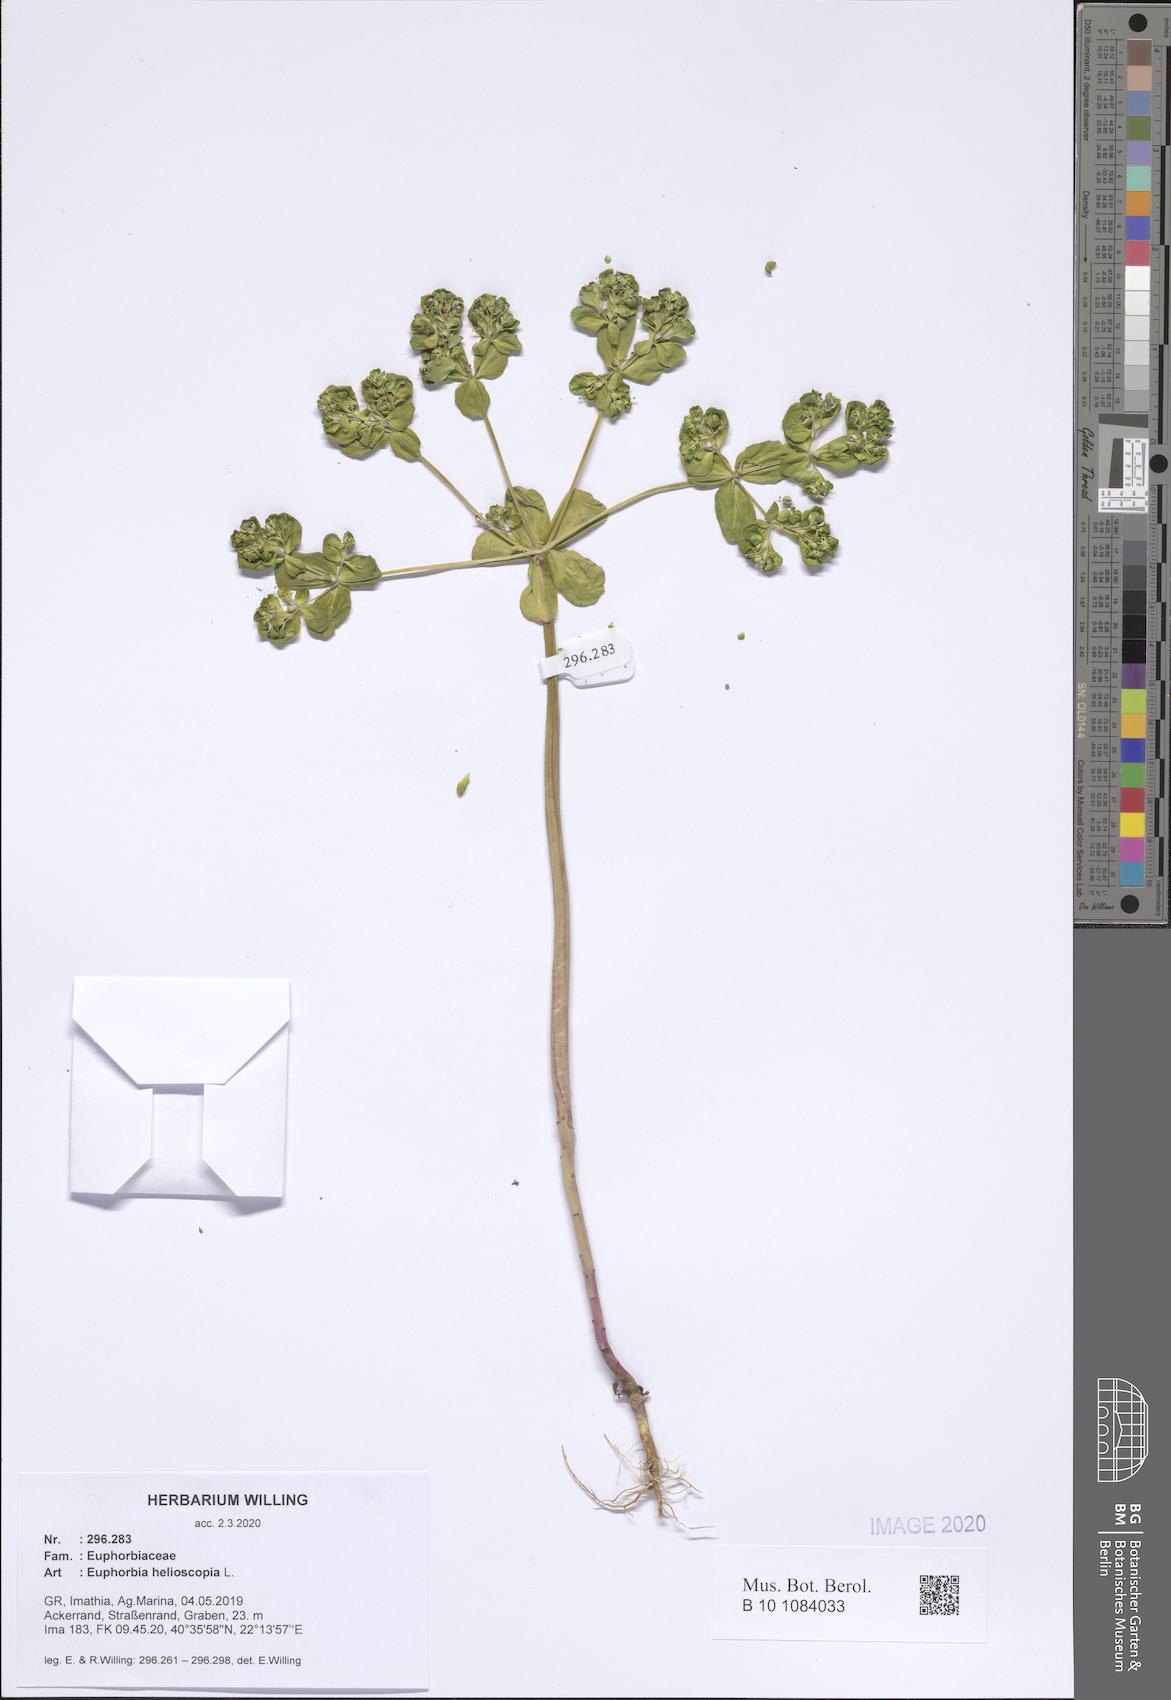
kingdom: Plantae
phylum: Tracheophyta
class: Magnoliopsida
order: Malpighiales
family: Euphorbiaceae
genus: Euphorbia
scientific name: Euphorbia helioscopia
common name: Sun spurge
